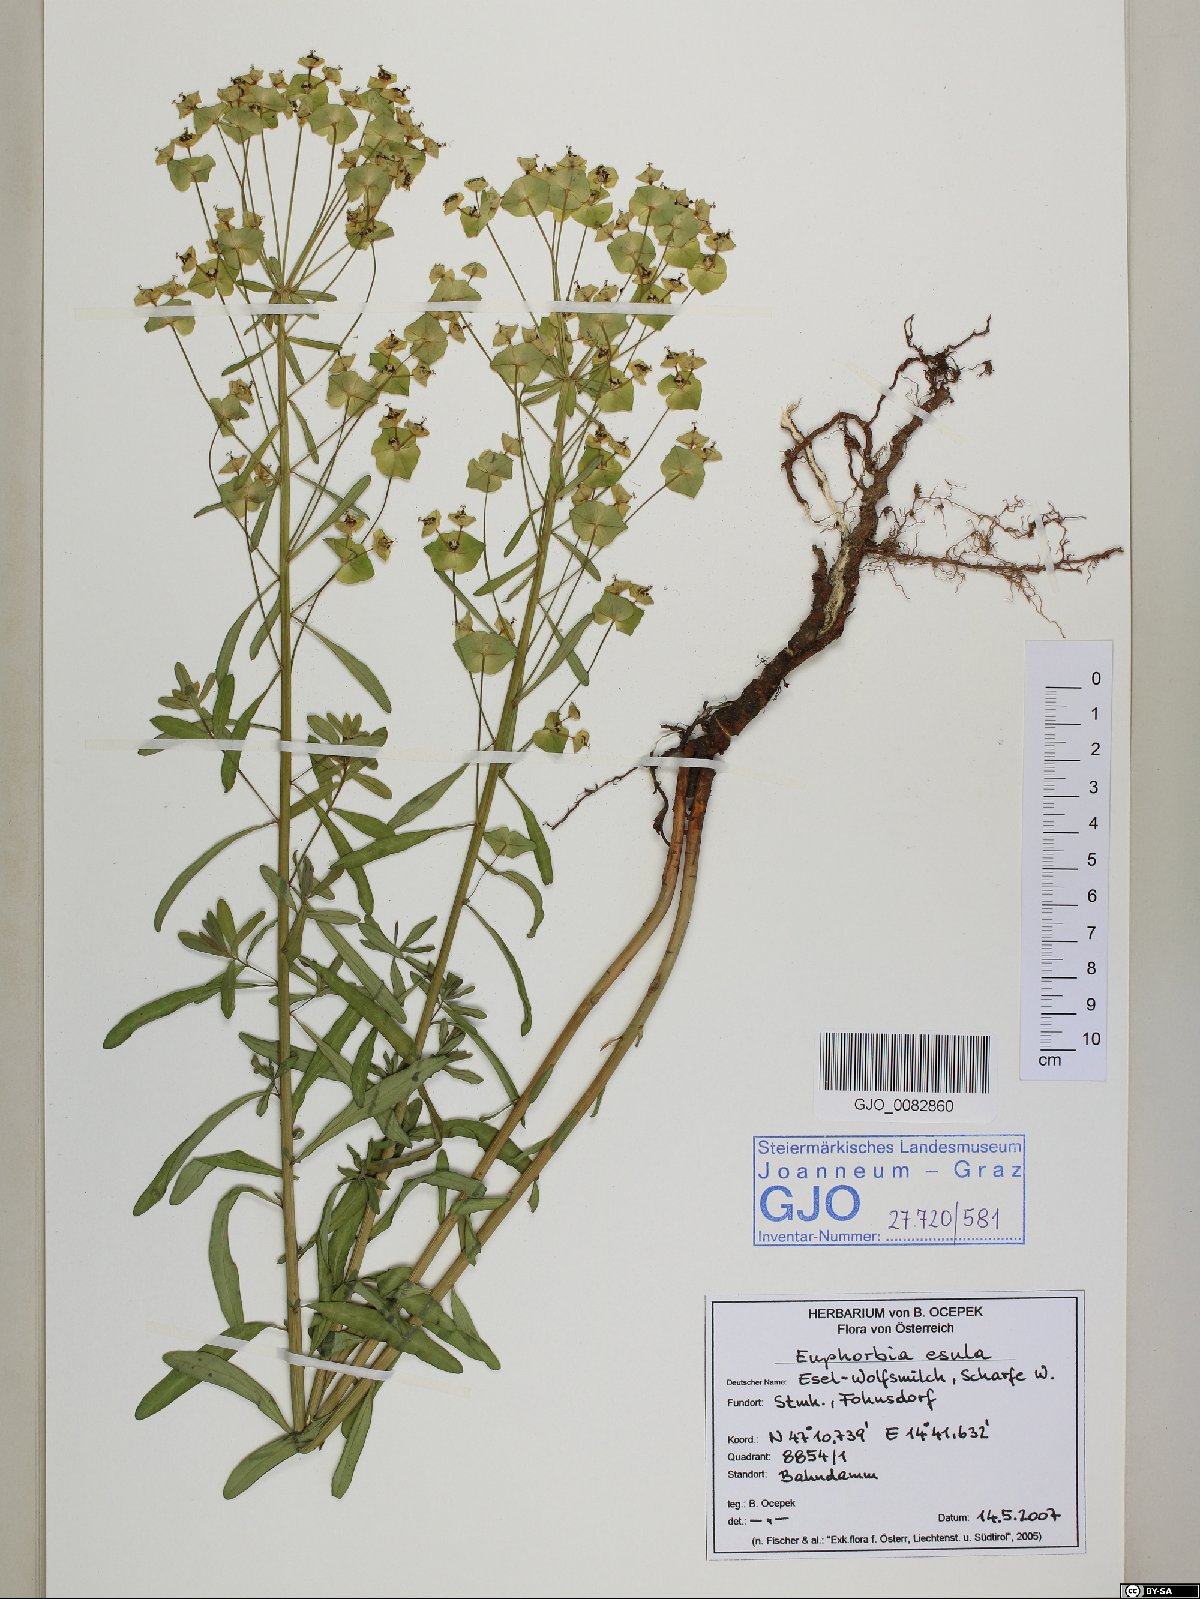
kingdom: Plantae
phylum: Tracheophyta
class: Magnoliopsida
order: Malpighiales
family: Euphorbiaceae
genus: Euphorbia
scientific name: Euphorbia esula
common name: Leafy spurge
